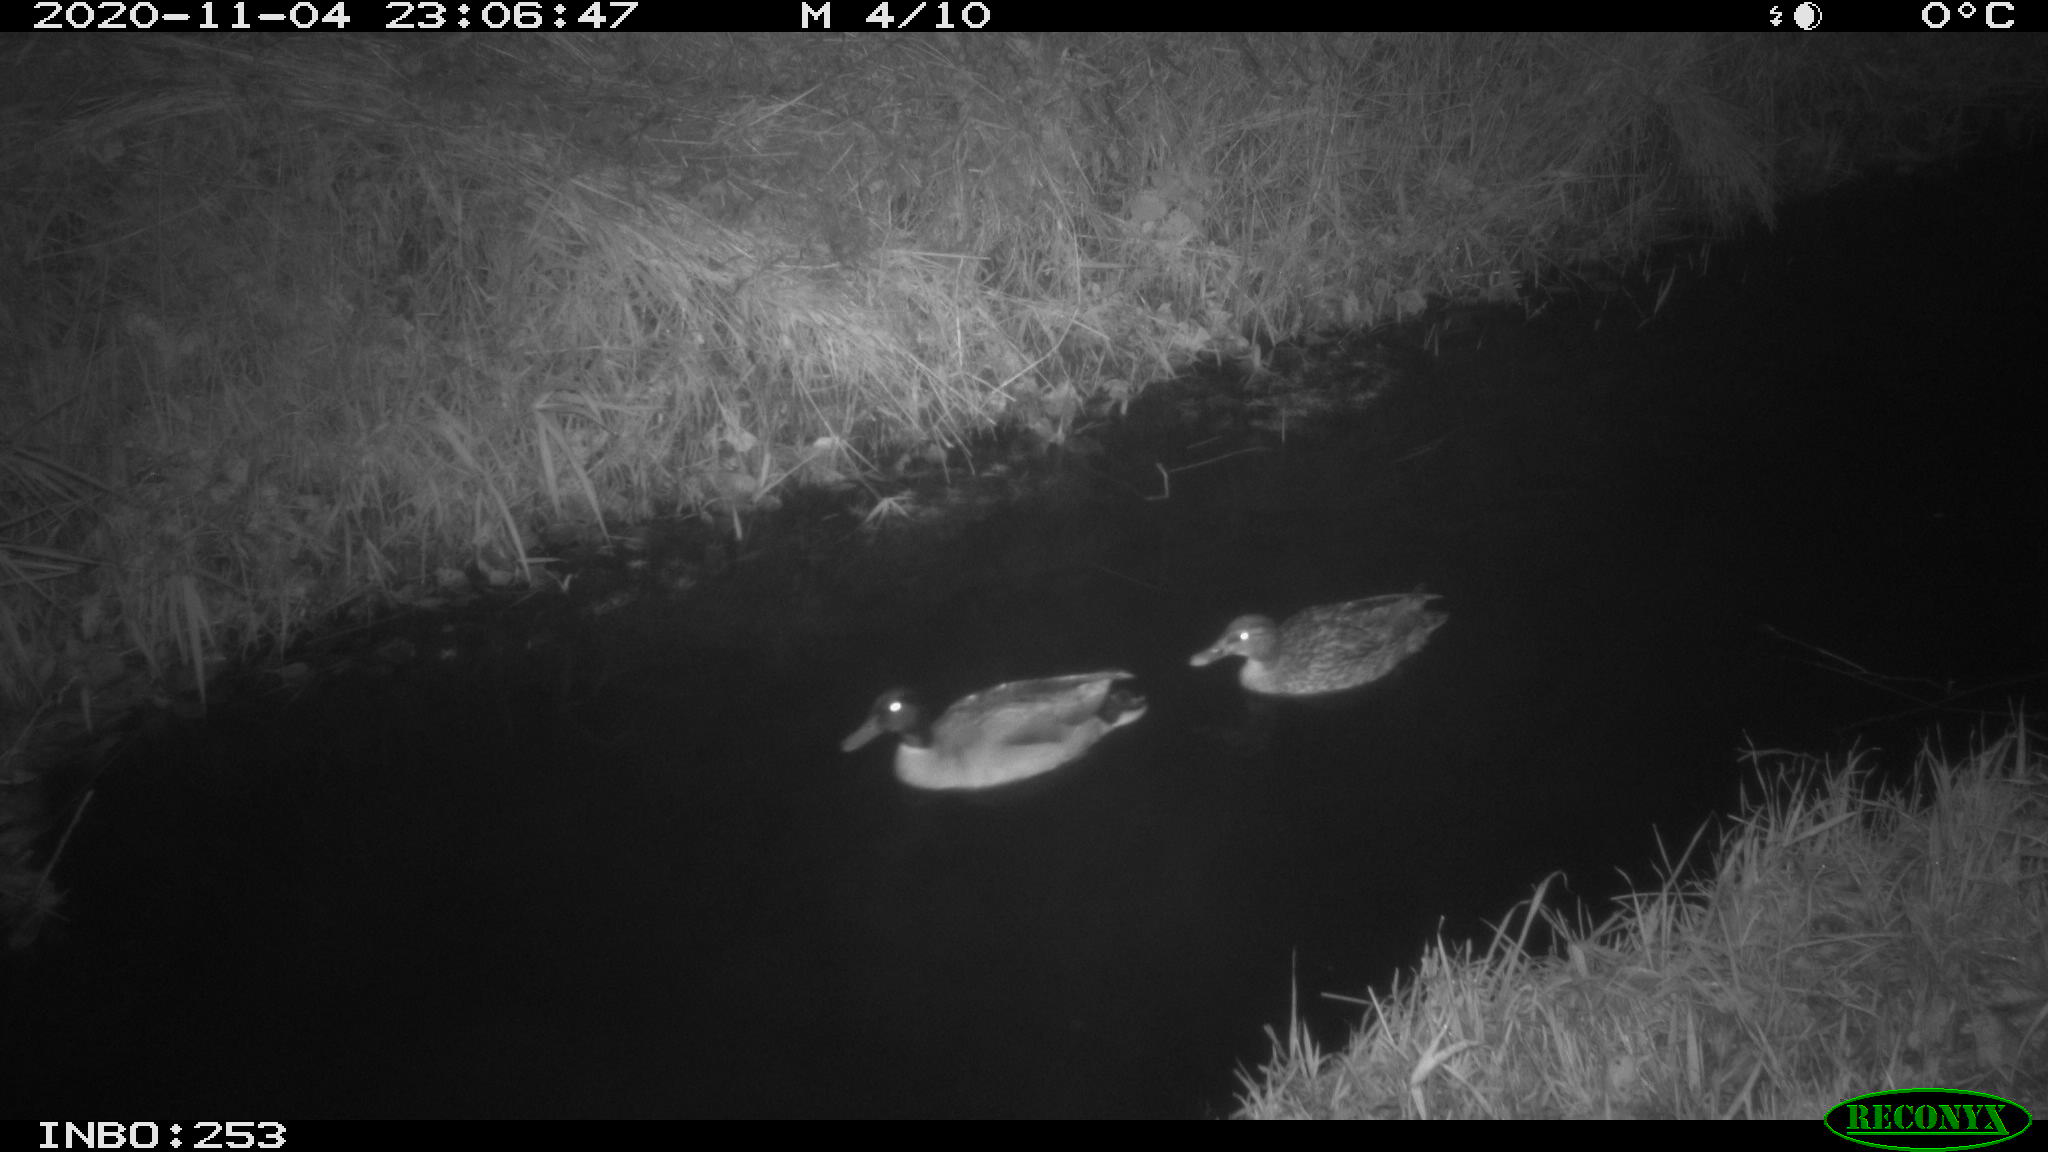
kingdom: Animalia
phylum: Chordata
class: Aves
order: Anseriformes
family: Anatidae
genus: Anas
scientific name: Anas platyrhynchos
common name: Mallard
